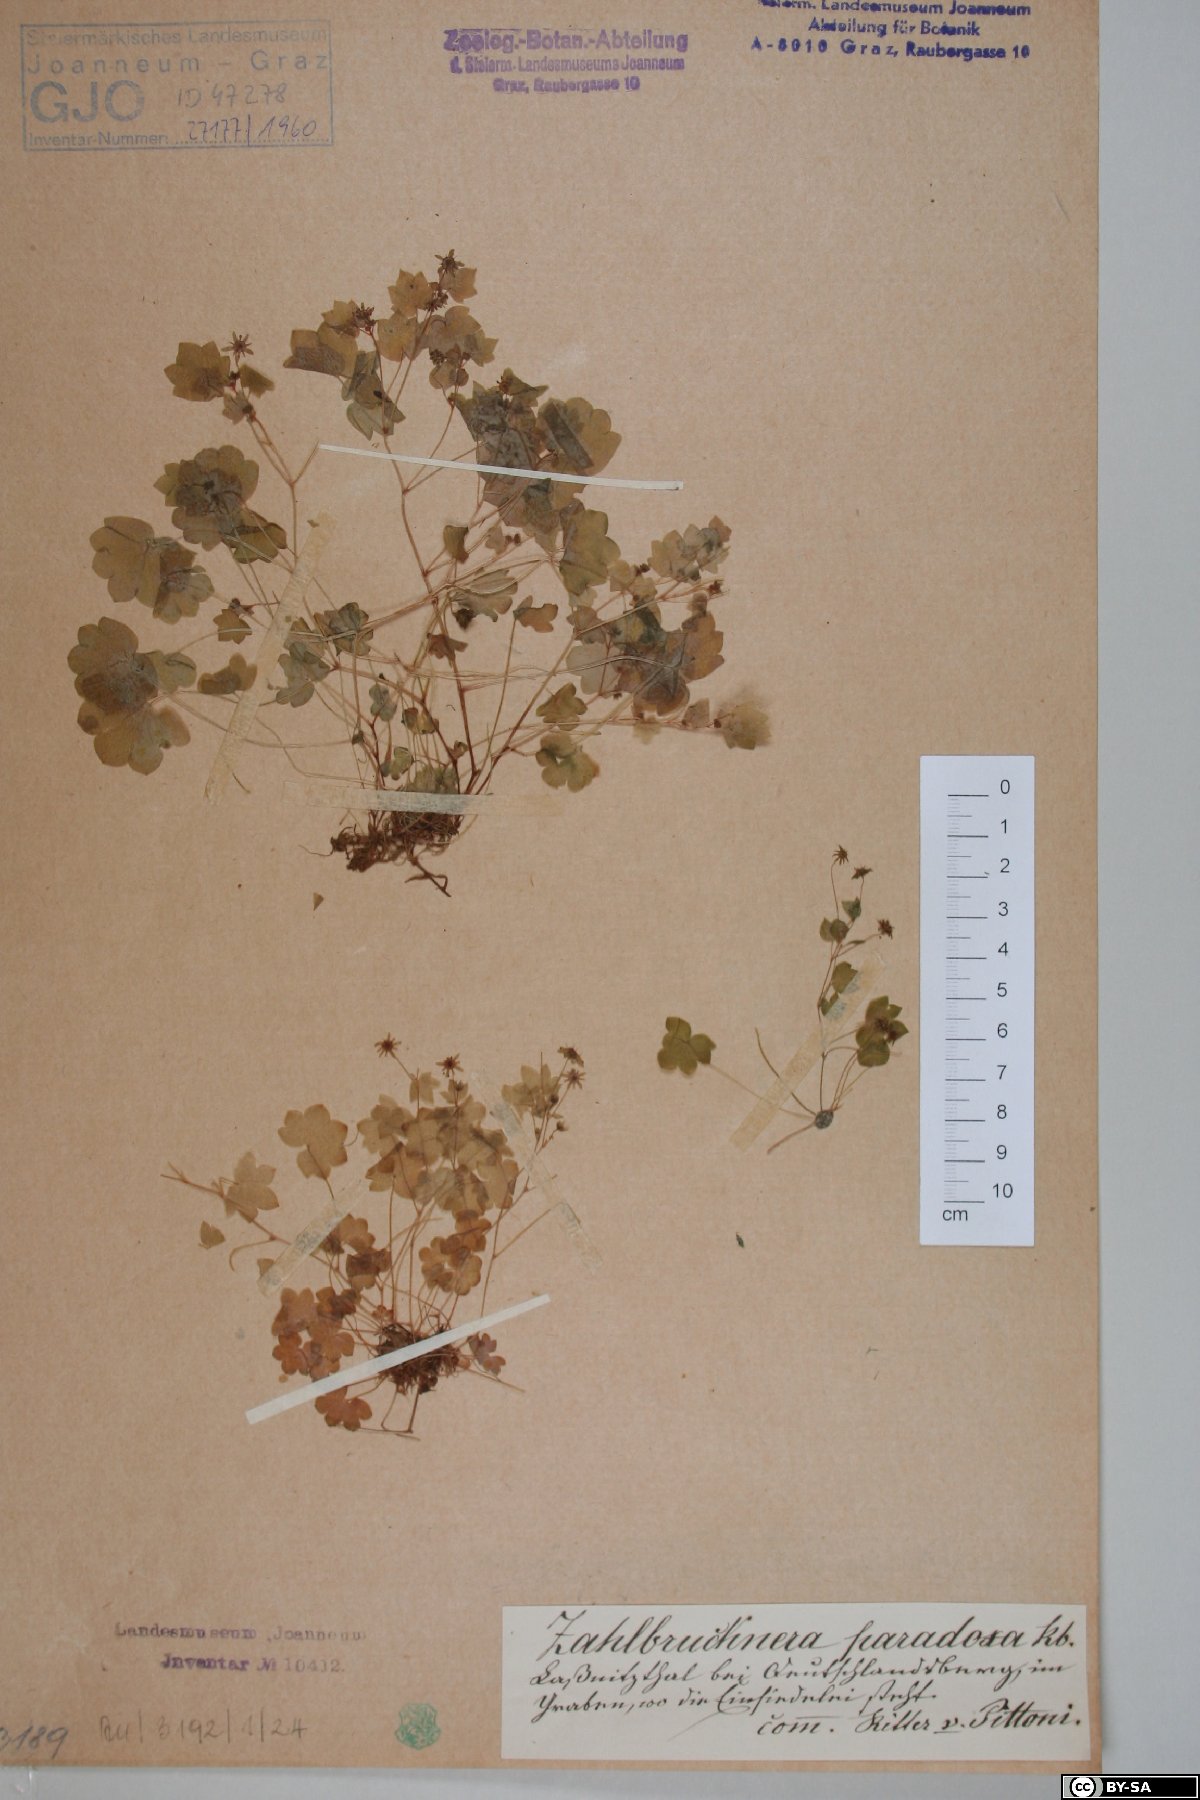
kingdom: Plantae
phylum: Tracheophyta
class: Magnoliopsida
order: Saxifragales
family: Saxifragaceae
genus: Saxifraga
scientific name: Saxifraga paradoxa
